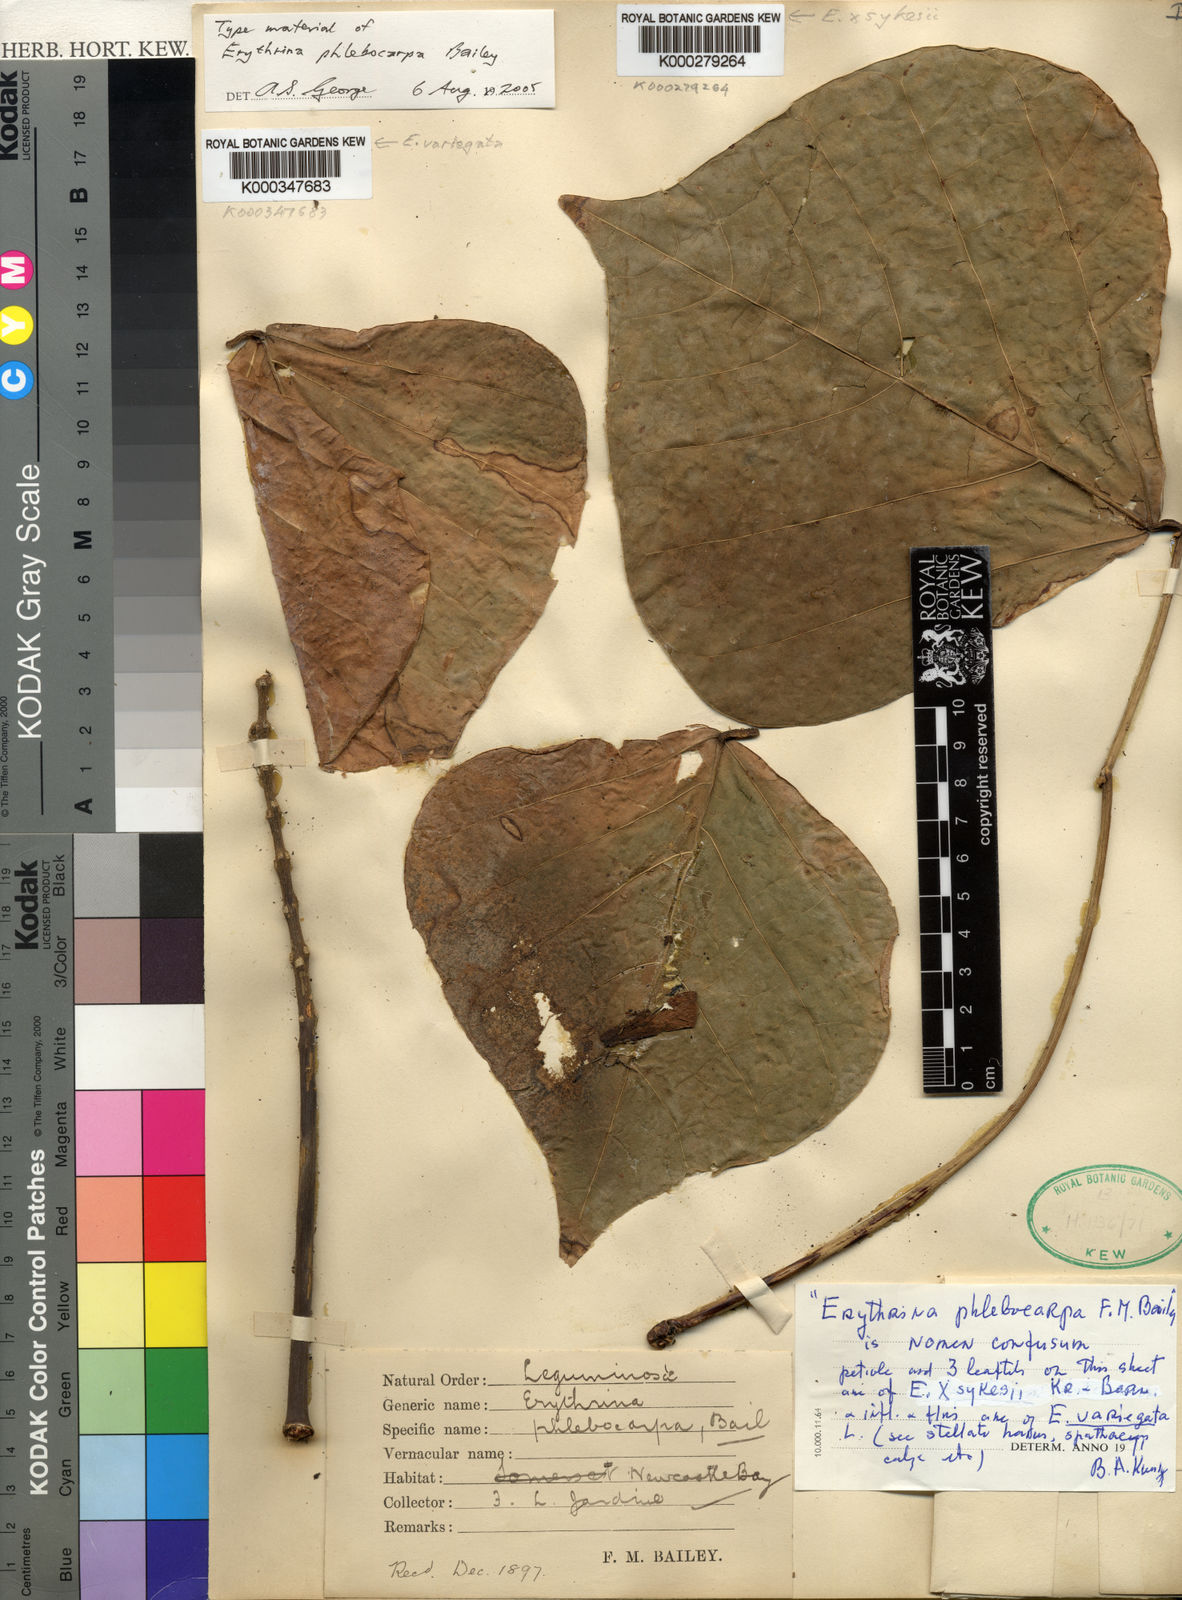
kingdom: Plantae
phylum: Tracheophyta
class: Magnoliopsida
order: Fabales
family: Fabaceae
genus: Erythrina
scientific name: Erythrina variegata
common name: Indian coral tree
